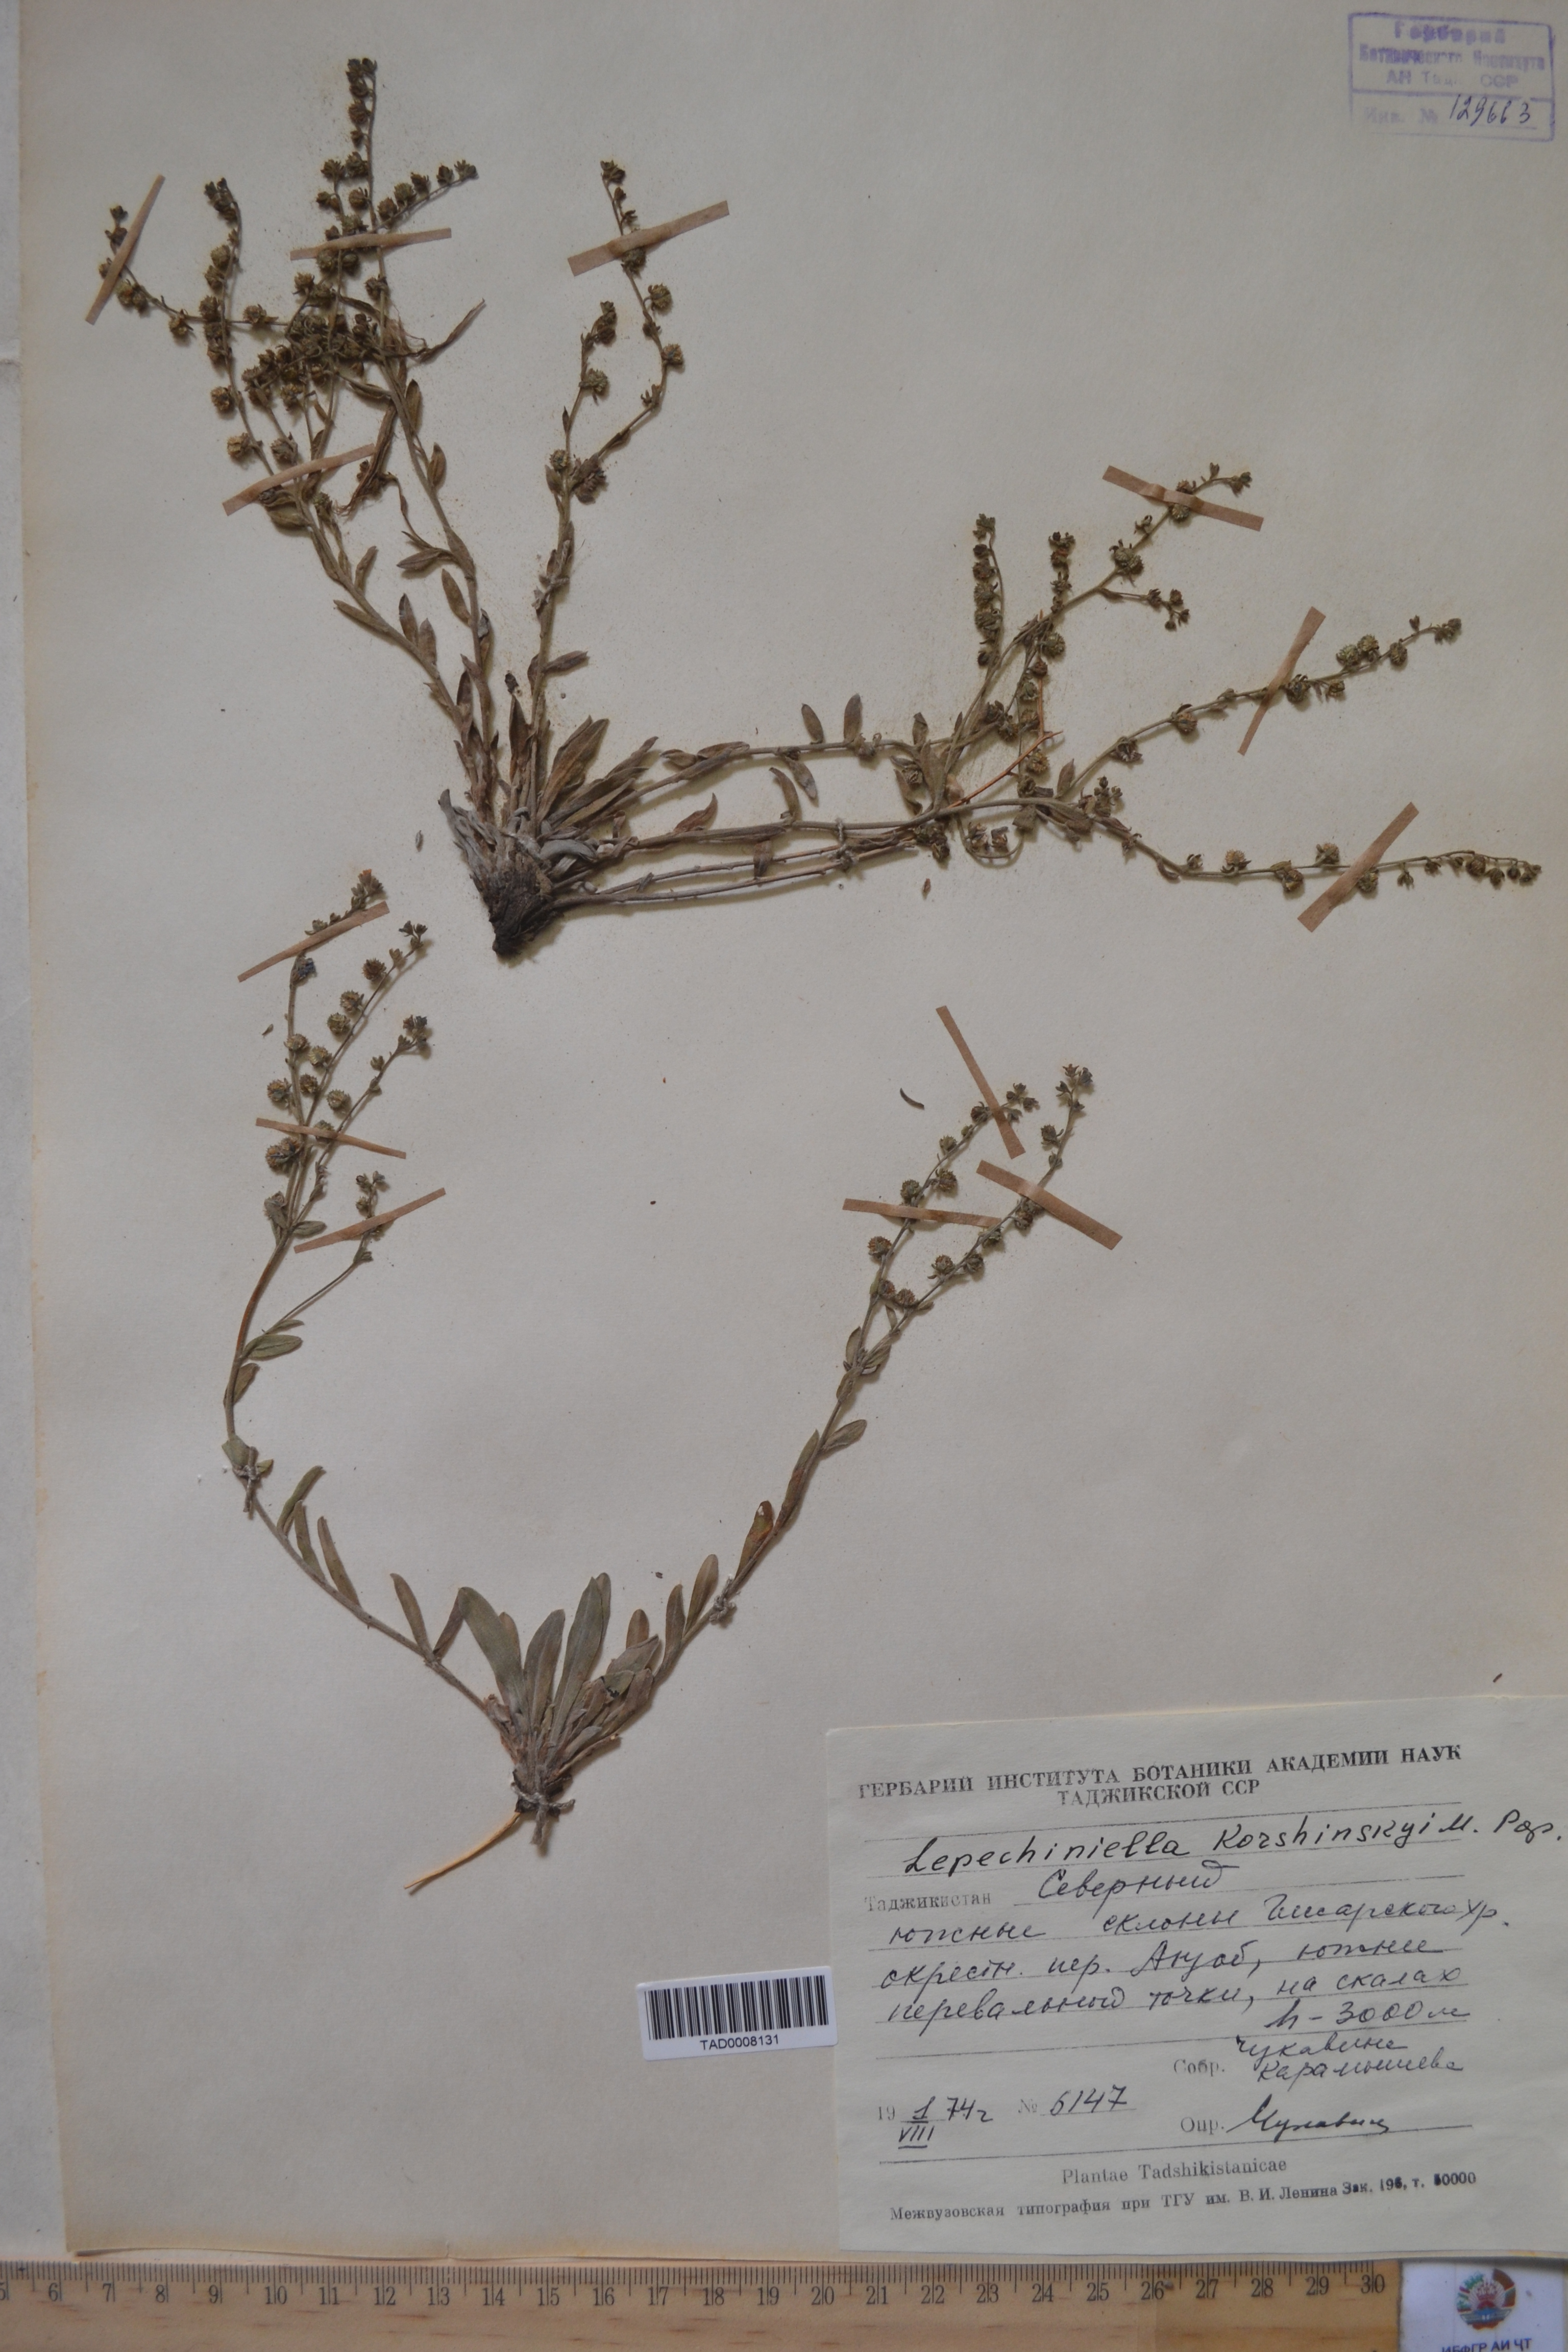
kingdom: Plantae
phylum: Tracheophyta
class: Magnoliopsida
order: Boraginales
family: Boraginaceae
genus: Lepechiniella
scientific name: Lepechiniella
